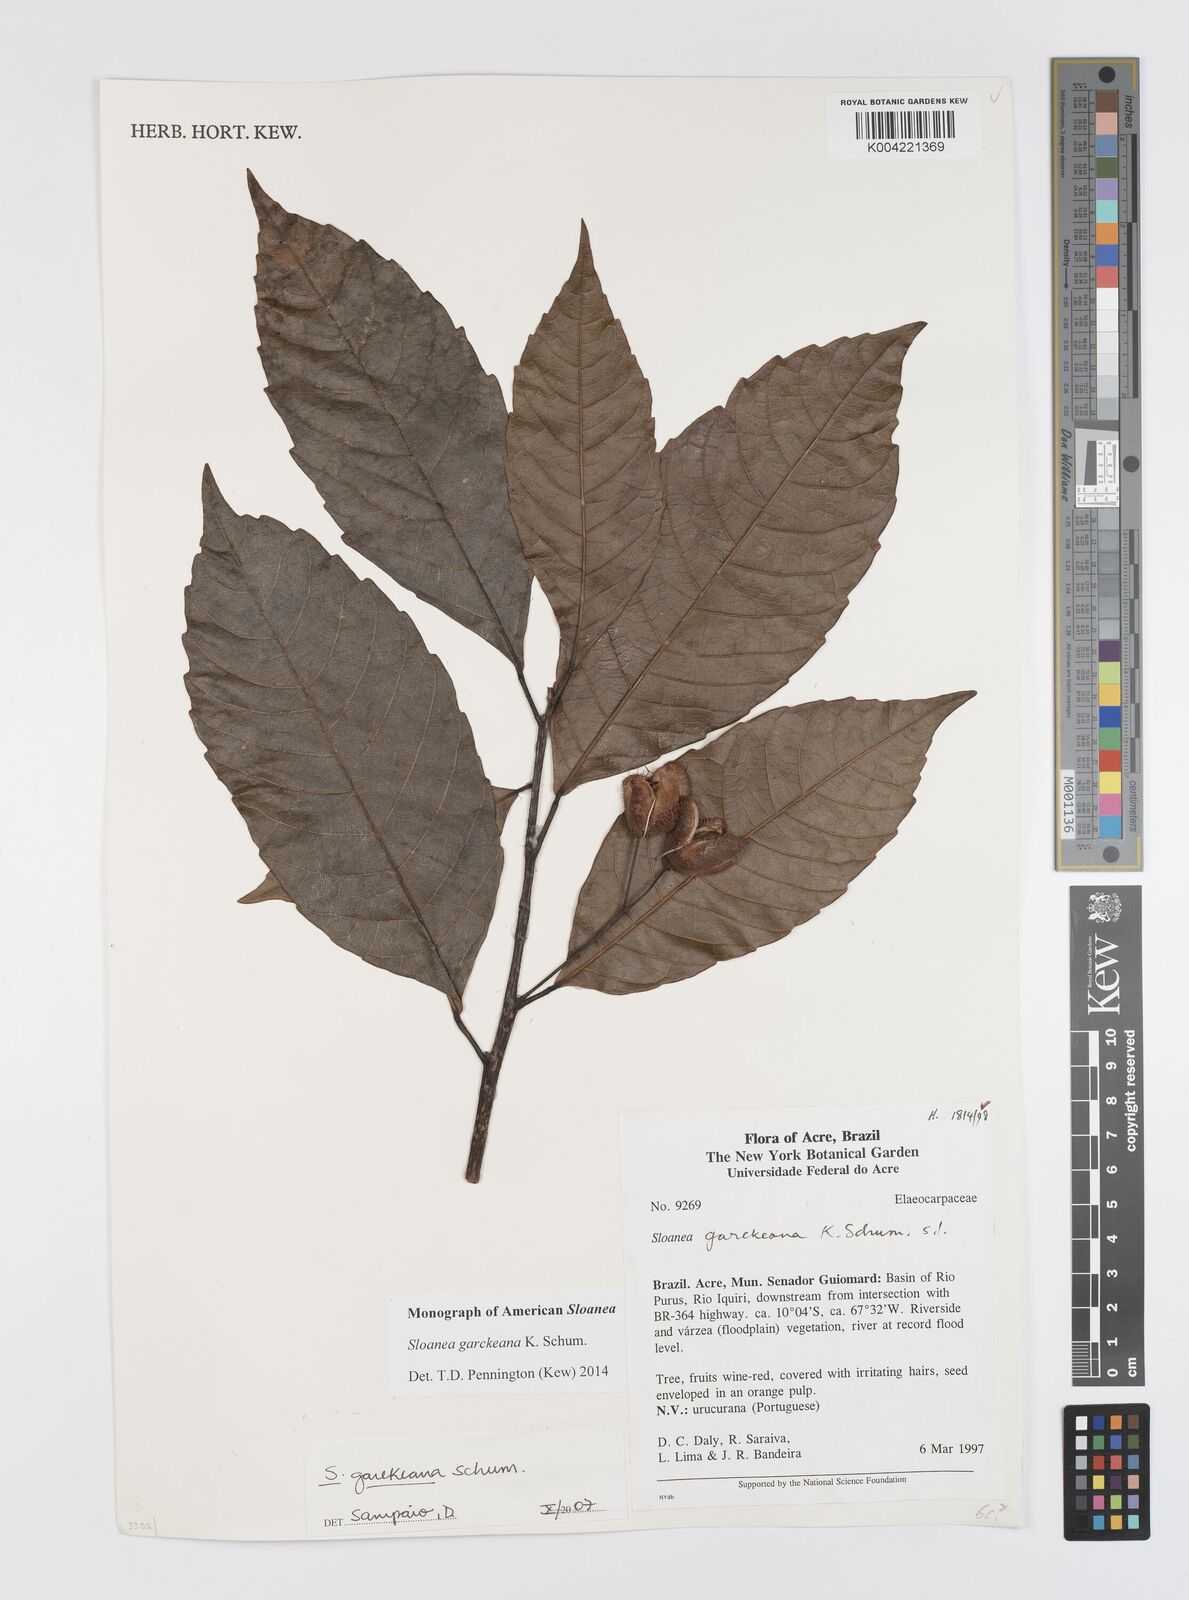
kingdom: Plantae
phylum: Tracheophyta
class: Magnoliopsida
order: Oxalidales
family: Elaeocarpaceae
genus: Sloanea
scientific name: Sloanea garckeana
